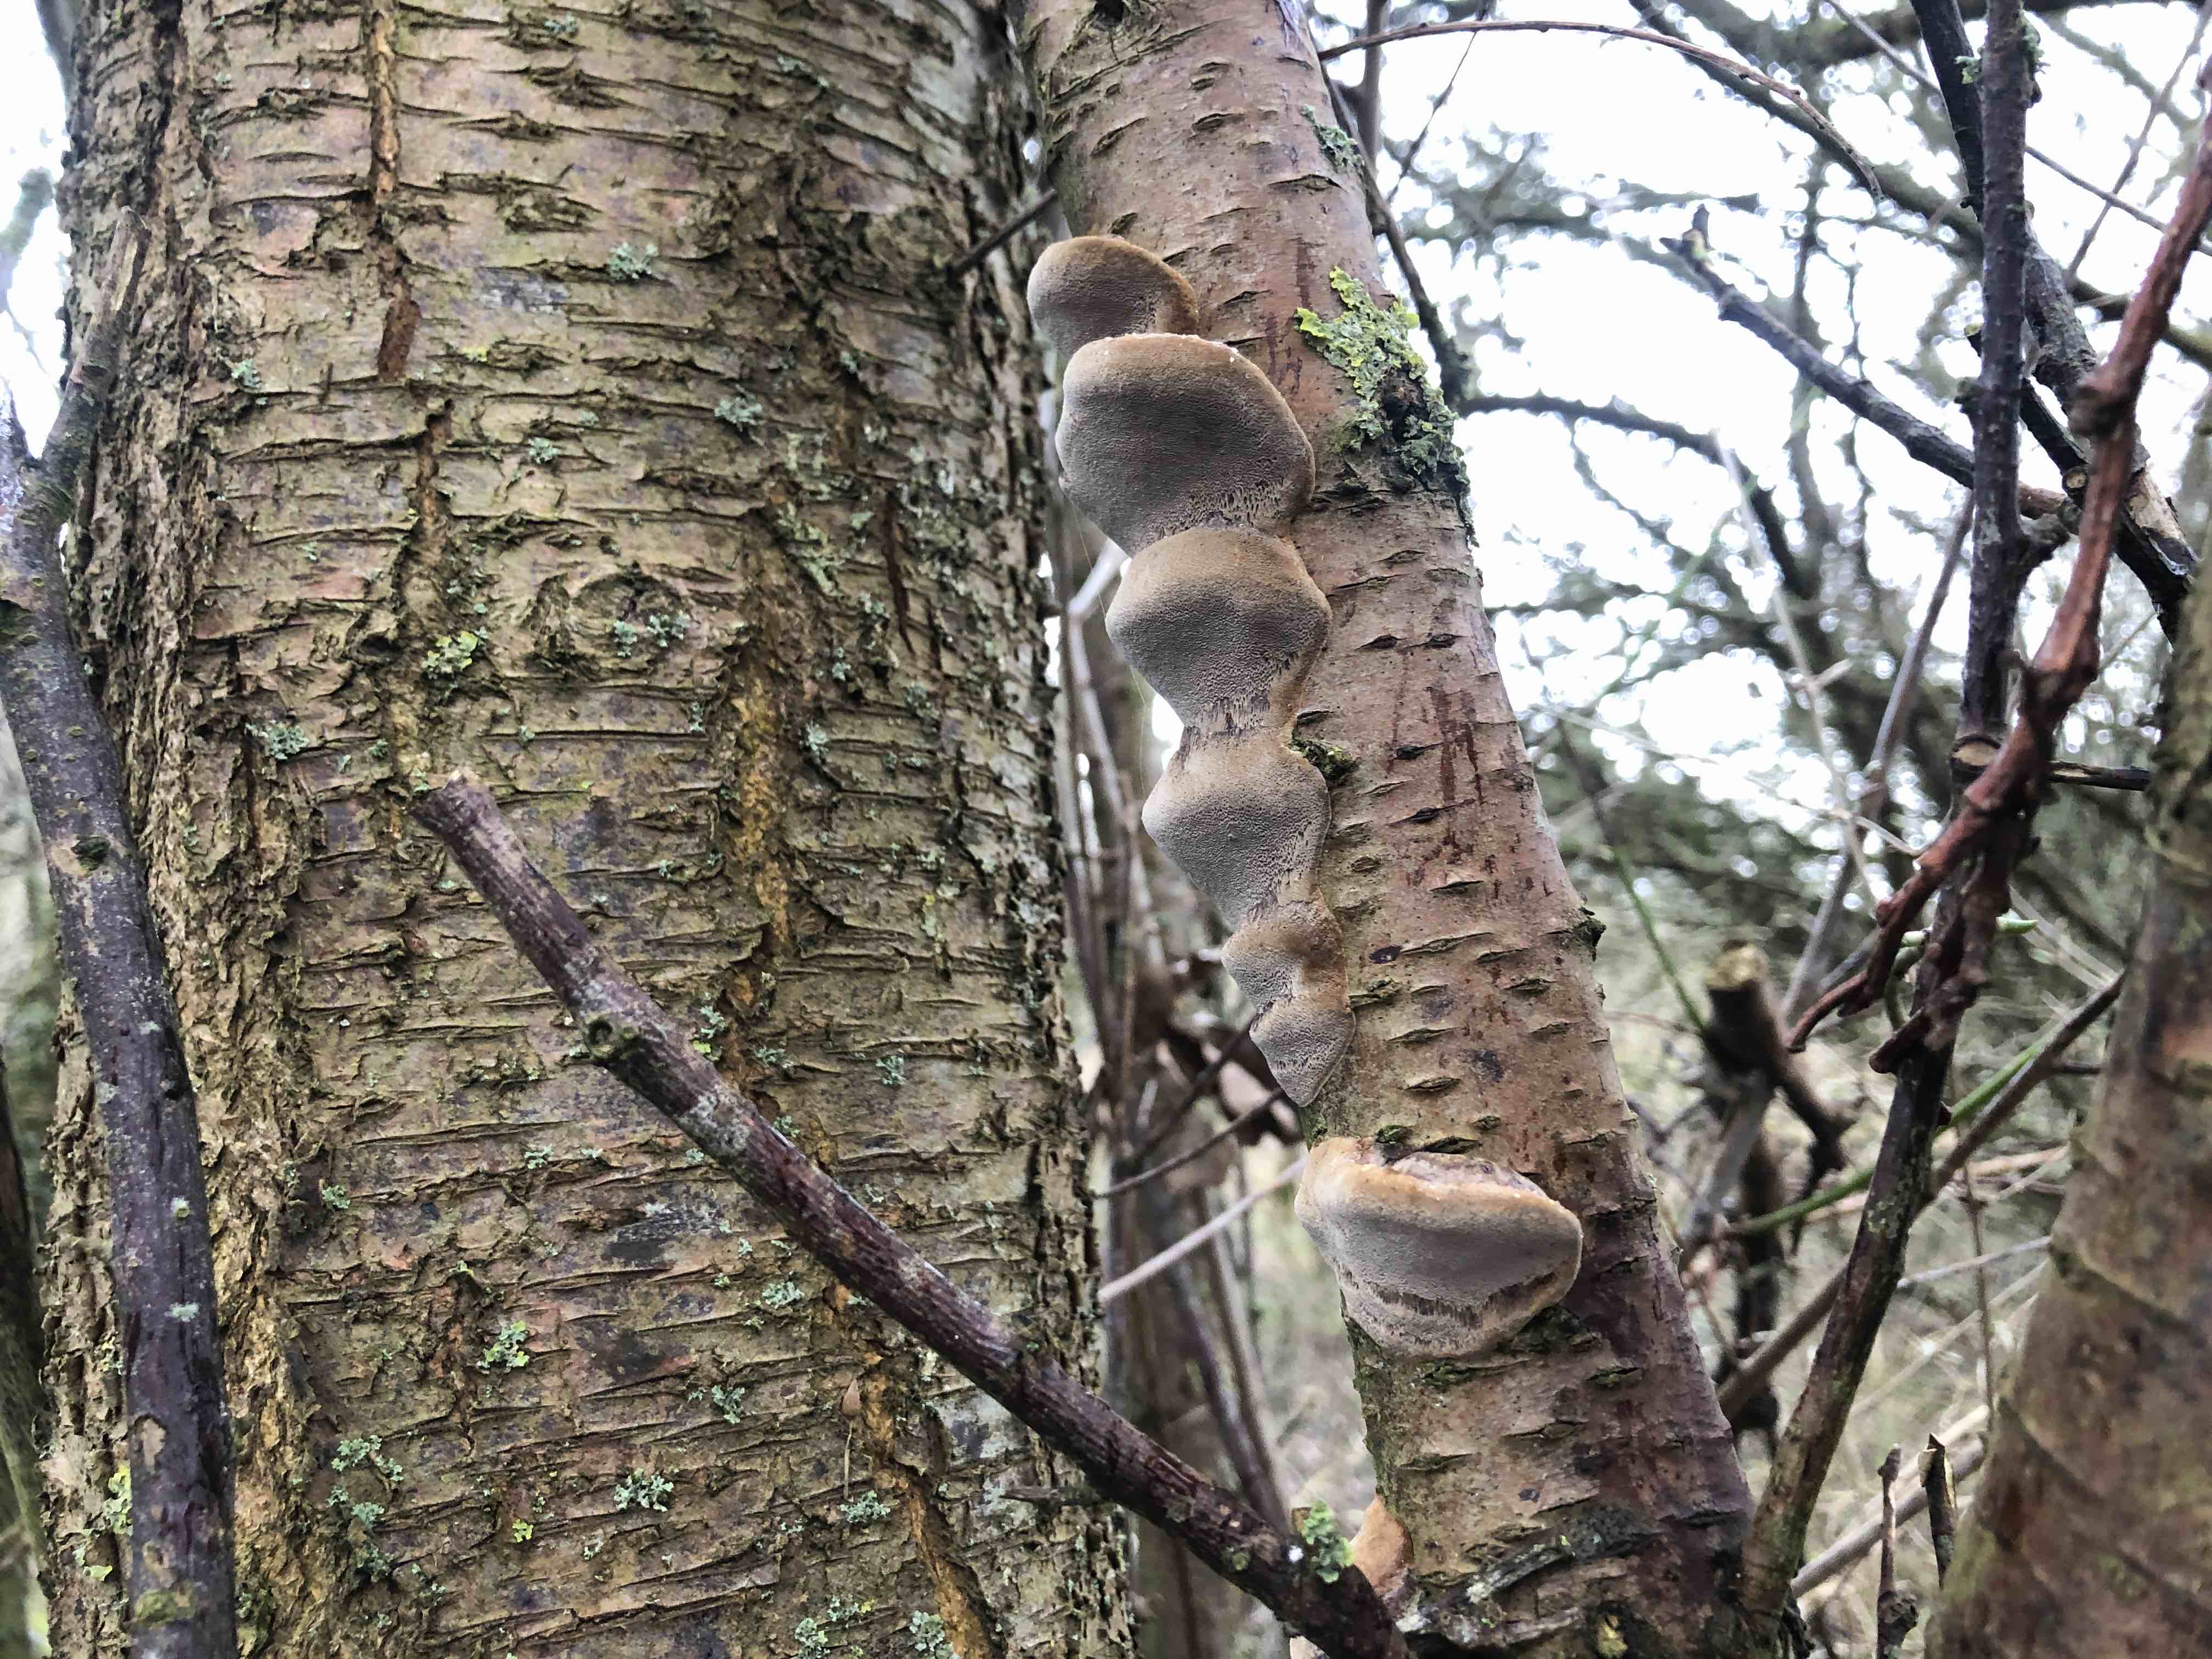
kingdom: Fungi
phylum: Basidiomycota
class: Agaricomycetes
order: Hymenochaetales
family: Hymenochaetaceae
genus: Phellinus
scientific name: Phellinus pomaceus
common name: blomme-ildporesvamp
